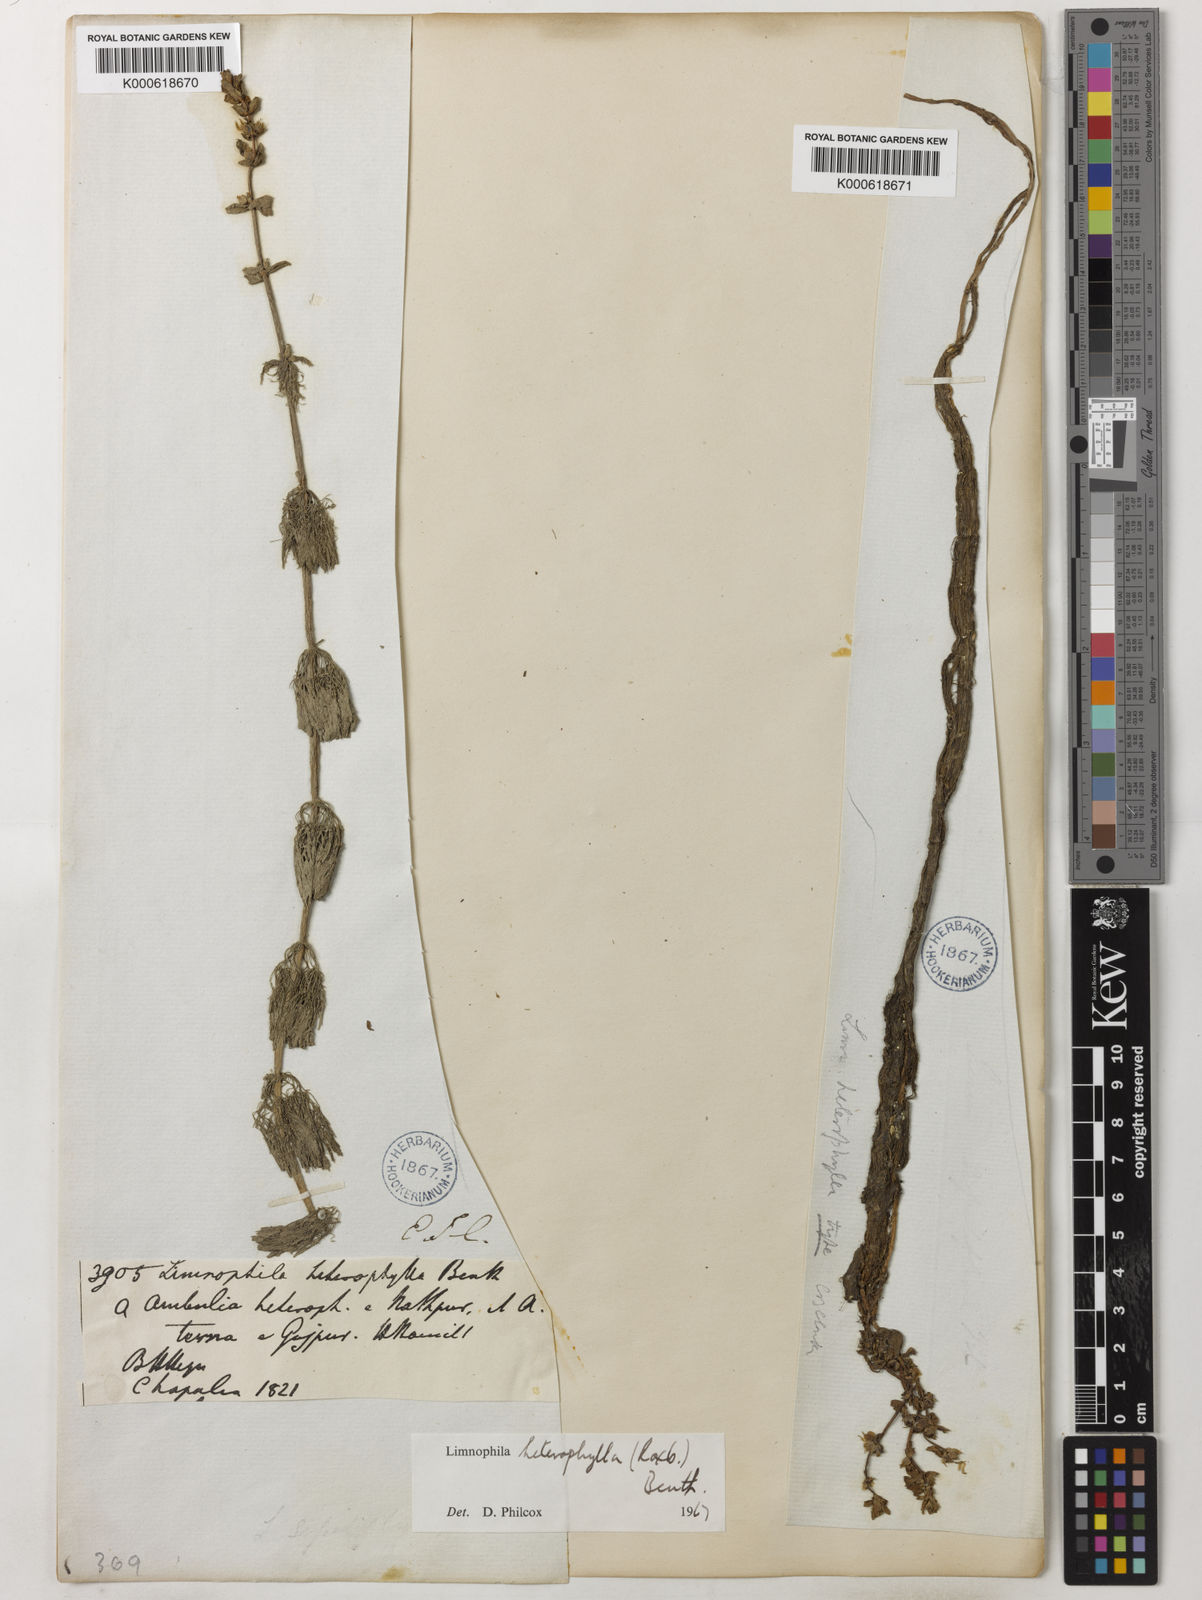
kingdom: Plantae
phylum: Tracheophyta
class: Magnoliopsida
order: Lamiales
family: Plantaginaceae
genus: Limnophila
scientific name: Limnophila heterophylla
